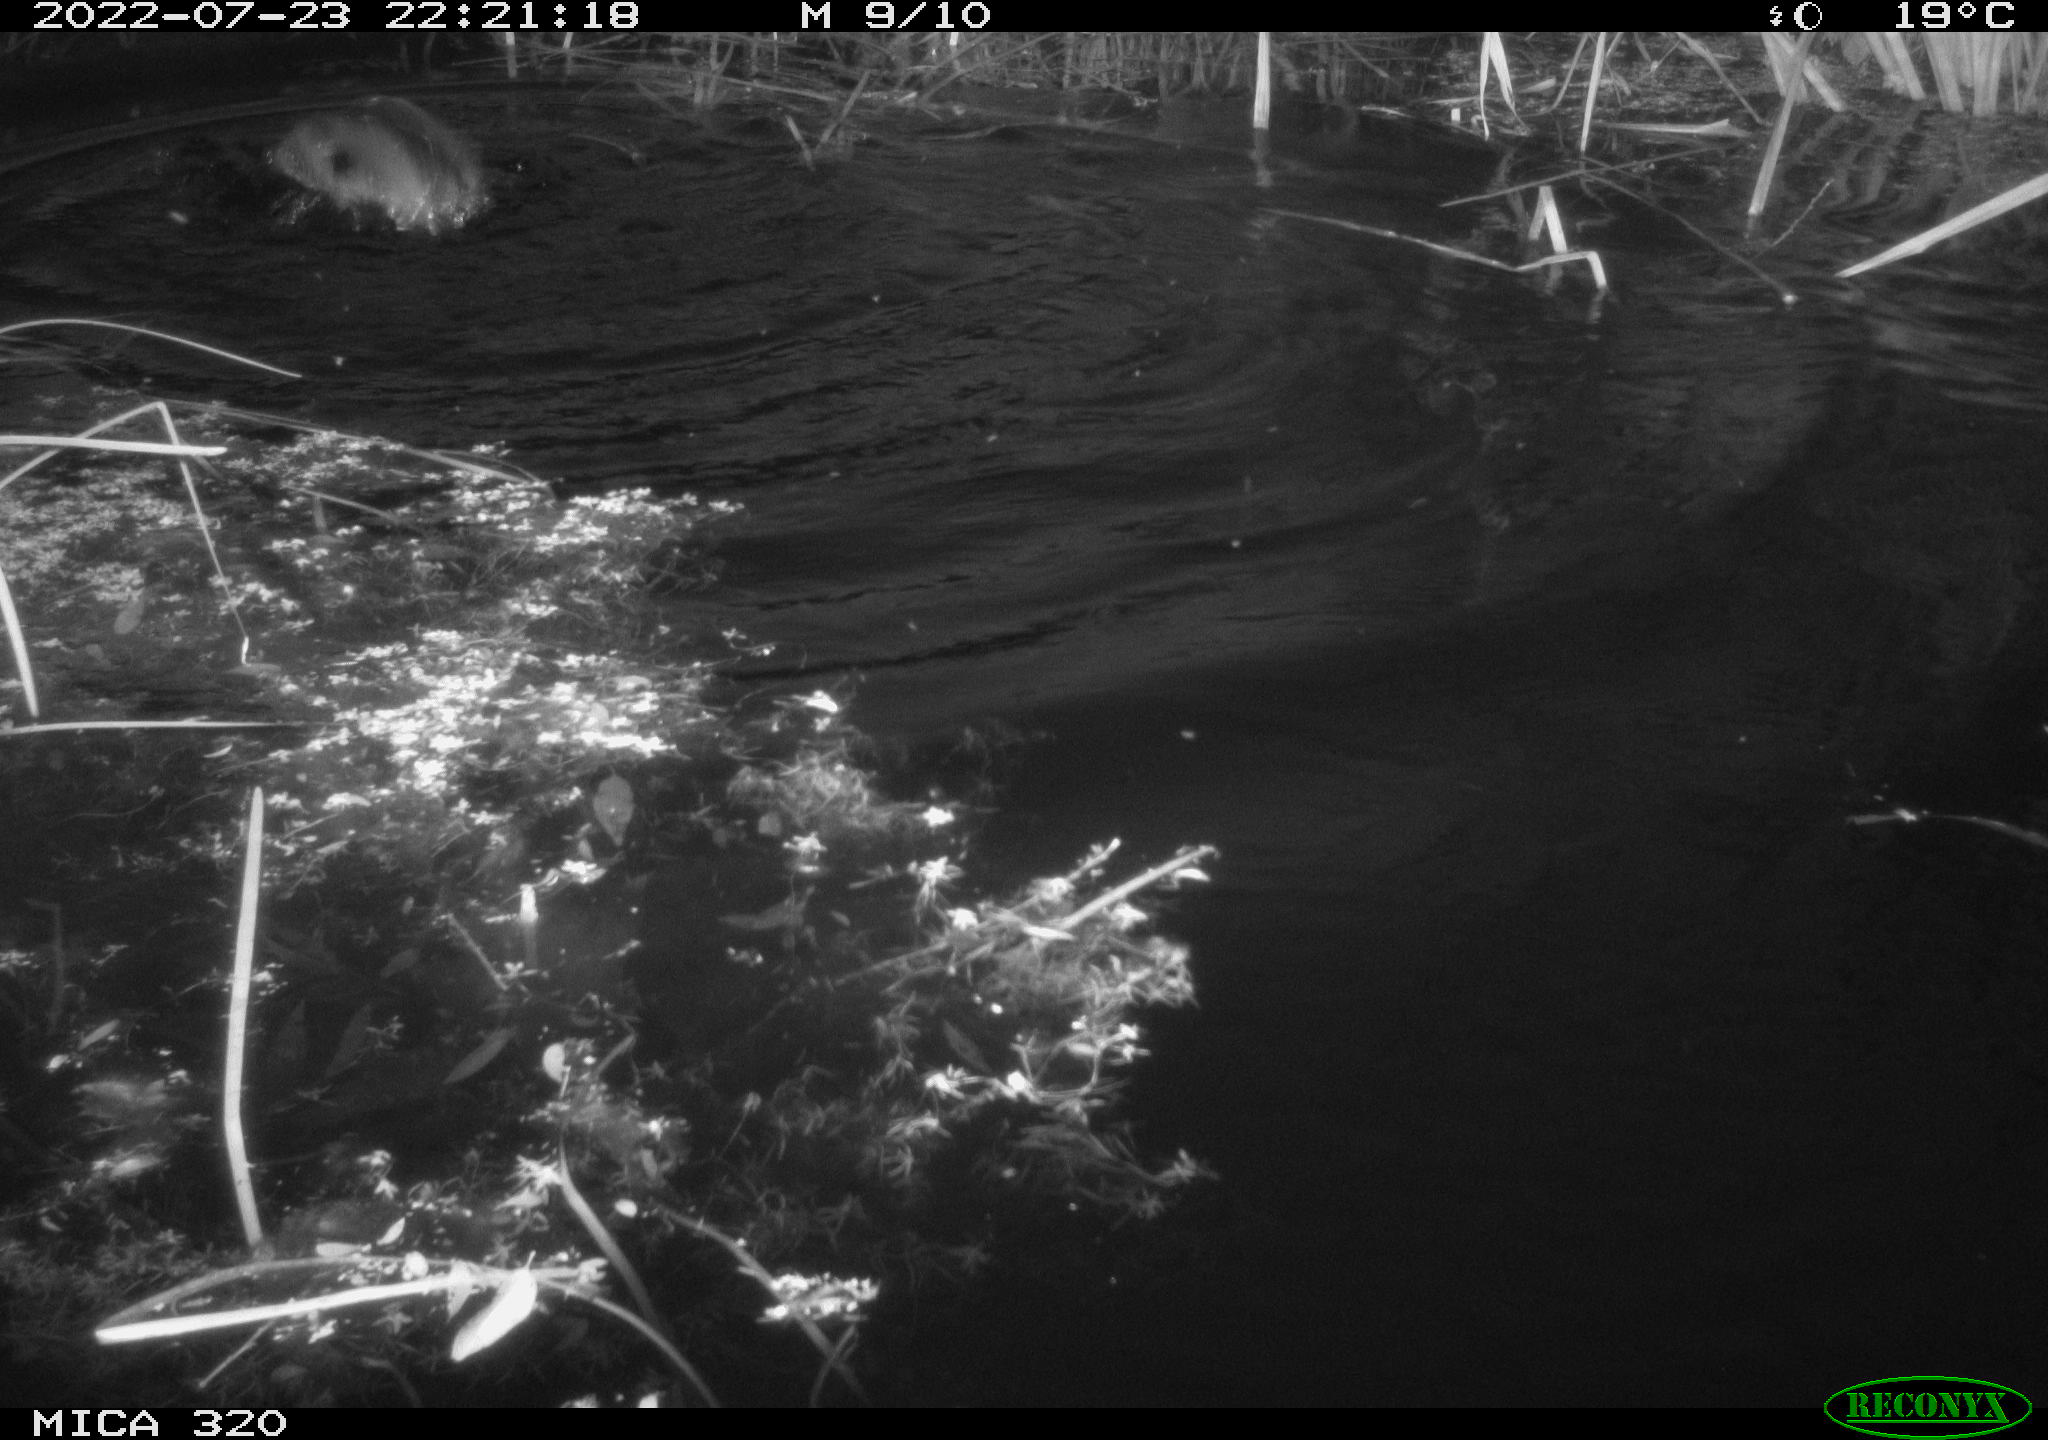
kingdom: Animalia
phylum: Chordata
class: Aves
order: Anseriformes
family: Anatidae
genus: Anas
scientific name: Anas platyrhynchos
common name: Mallard
